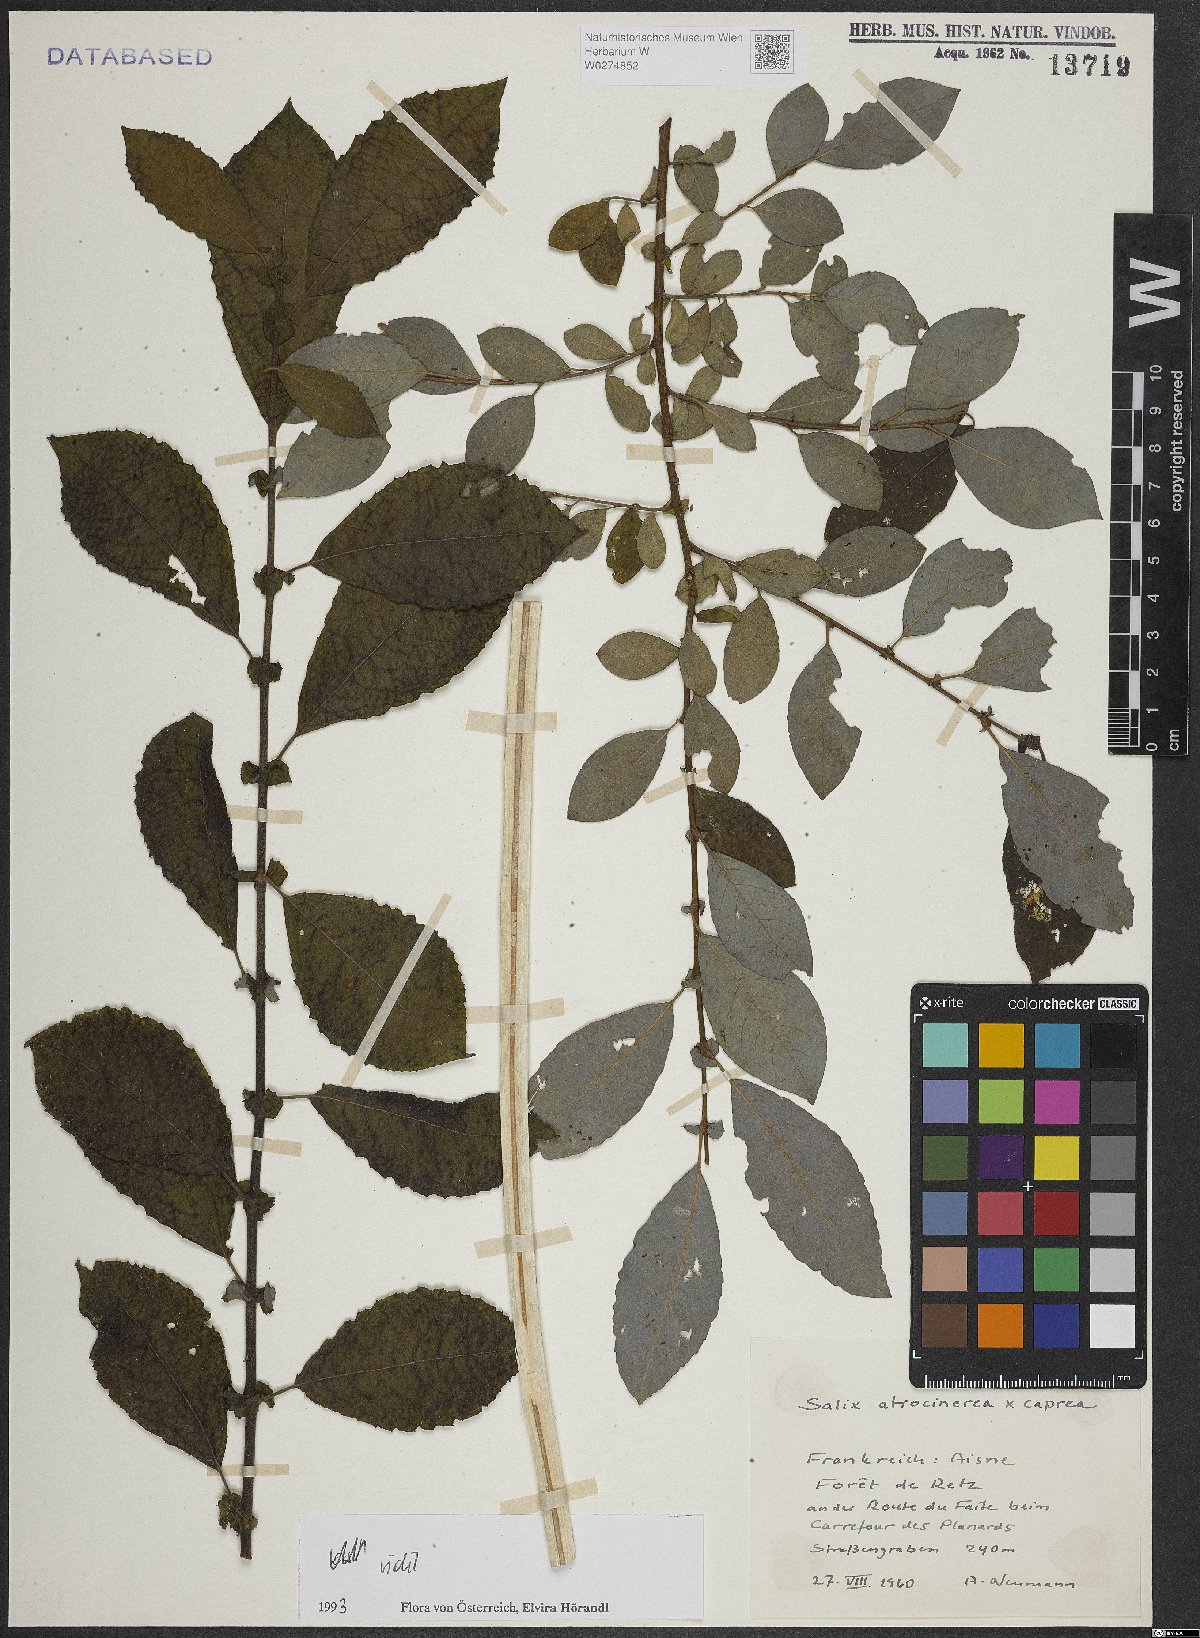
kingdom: Plantae
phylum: Tracheophyta
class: Magnoliopsida
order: Malpighiales
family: Salicaceae
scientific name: Salicaceae
